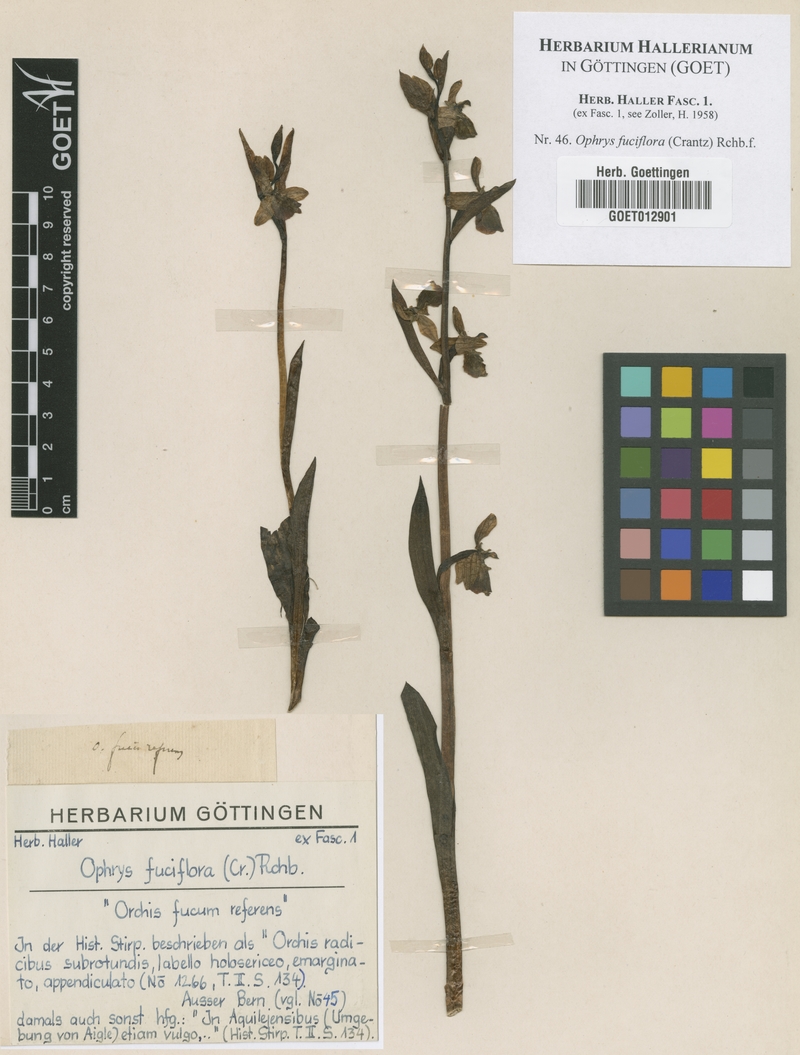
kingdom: Plantae
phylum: Tracheophyta
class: Liliopsida
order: Asparagales
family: Orchidaceae
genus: Ophrys
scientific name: Ophrys holosericea
